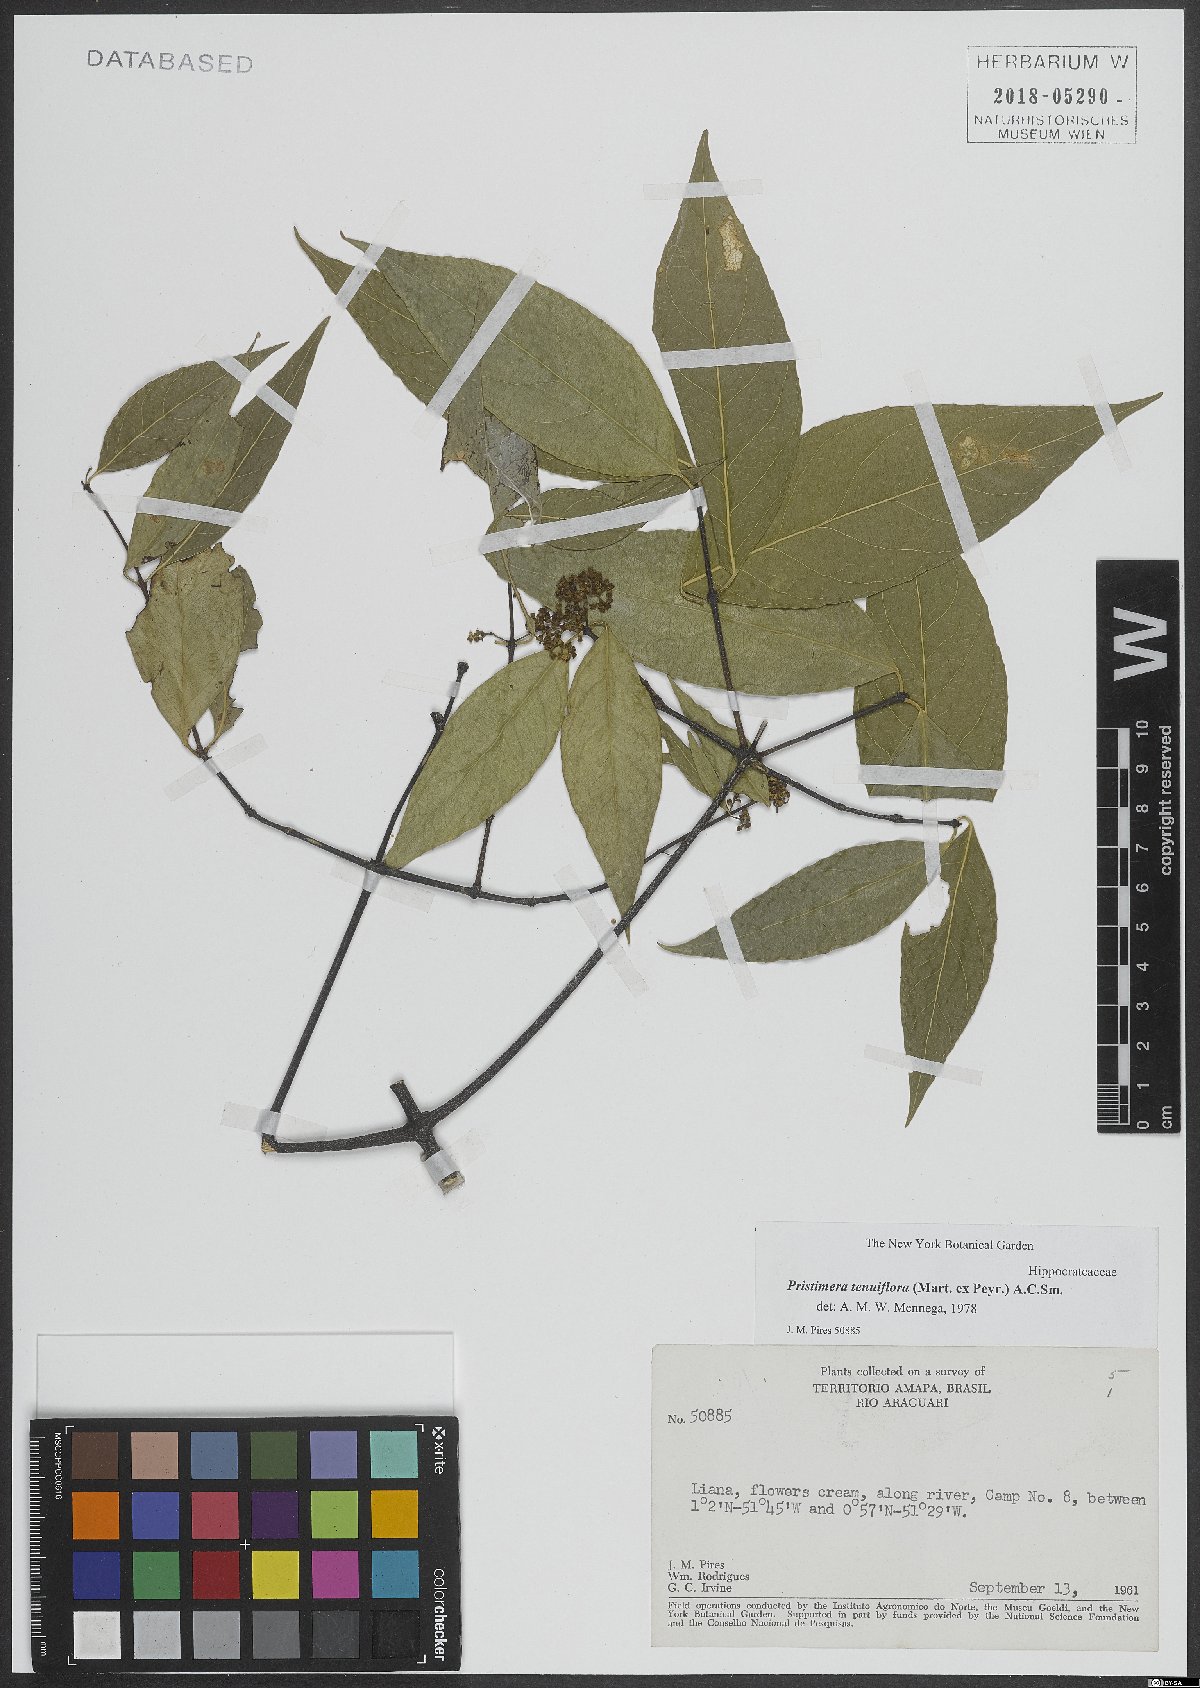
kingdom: Plantae
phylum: Tracheophyta
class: Magnoliopsida
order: Celastrales
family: Celastraceae
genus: Pristimera
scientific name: Pristimera tenuiflora
